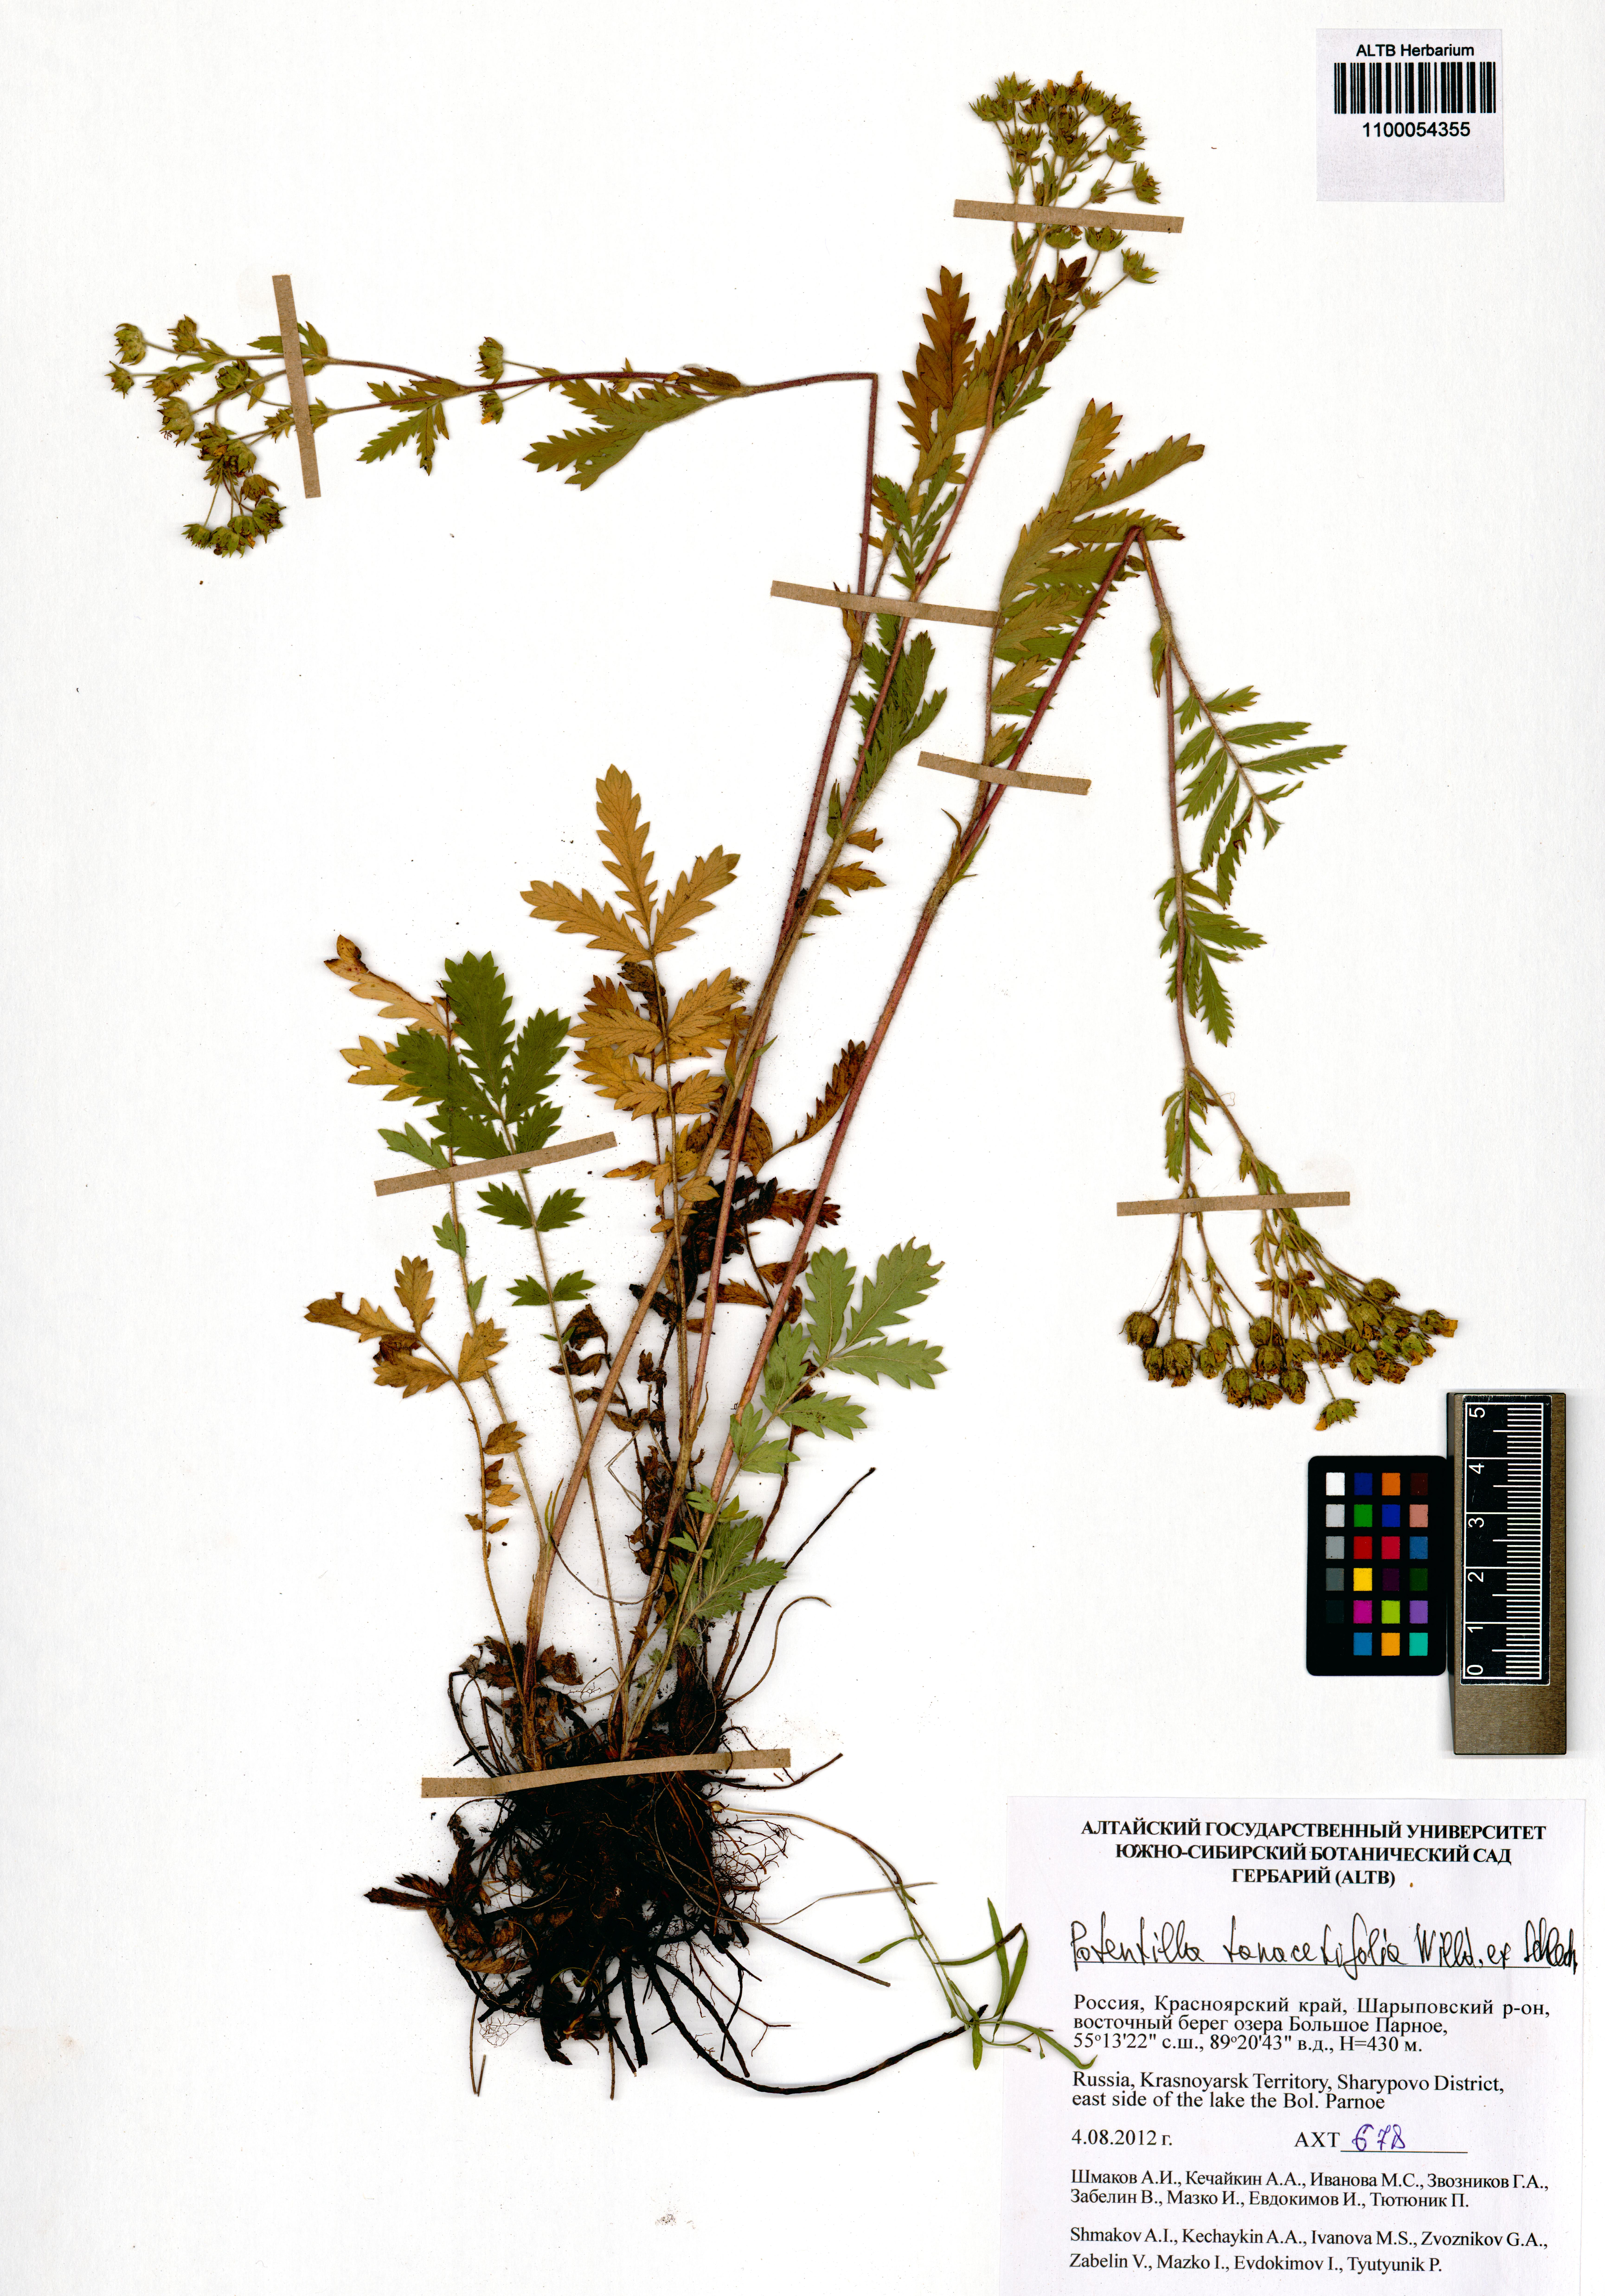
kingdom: Plantae
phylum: Tracheophyta
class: Magnoliopsida
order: Rosales
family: Rosaceae
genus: Potentilla
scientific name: Potentilla tanacetifolia
